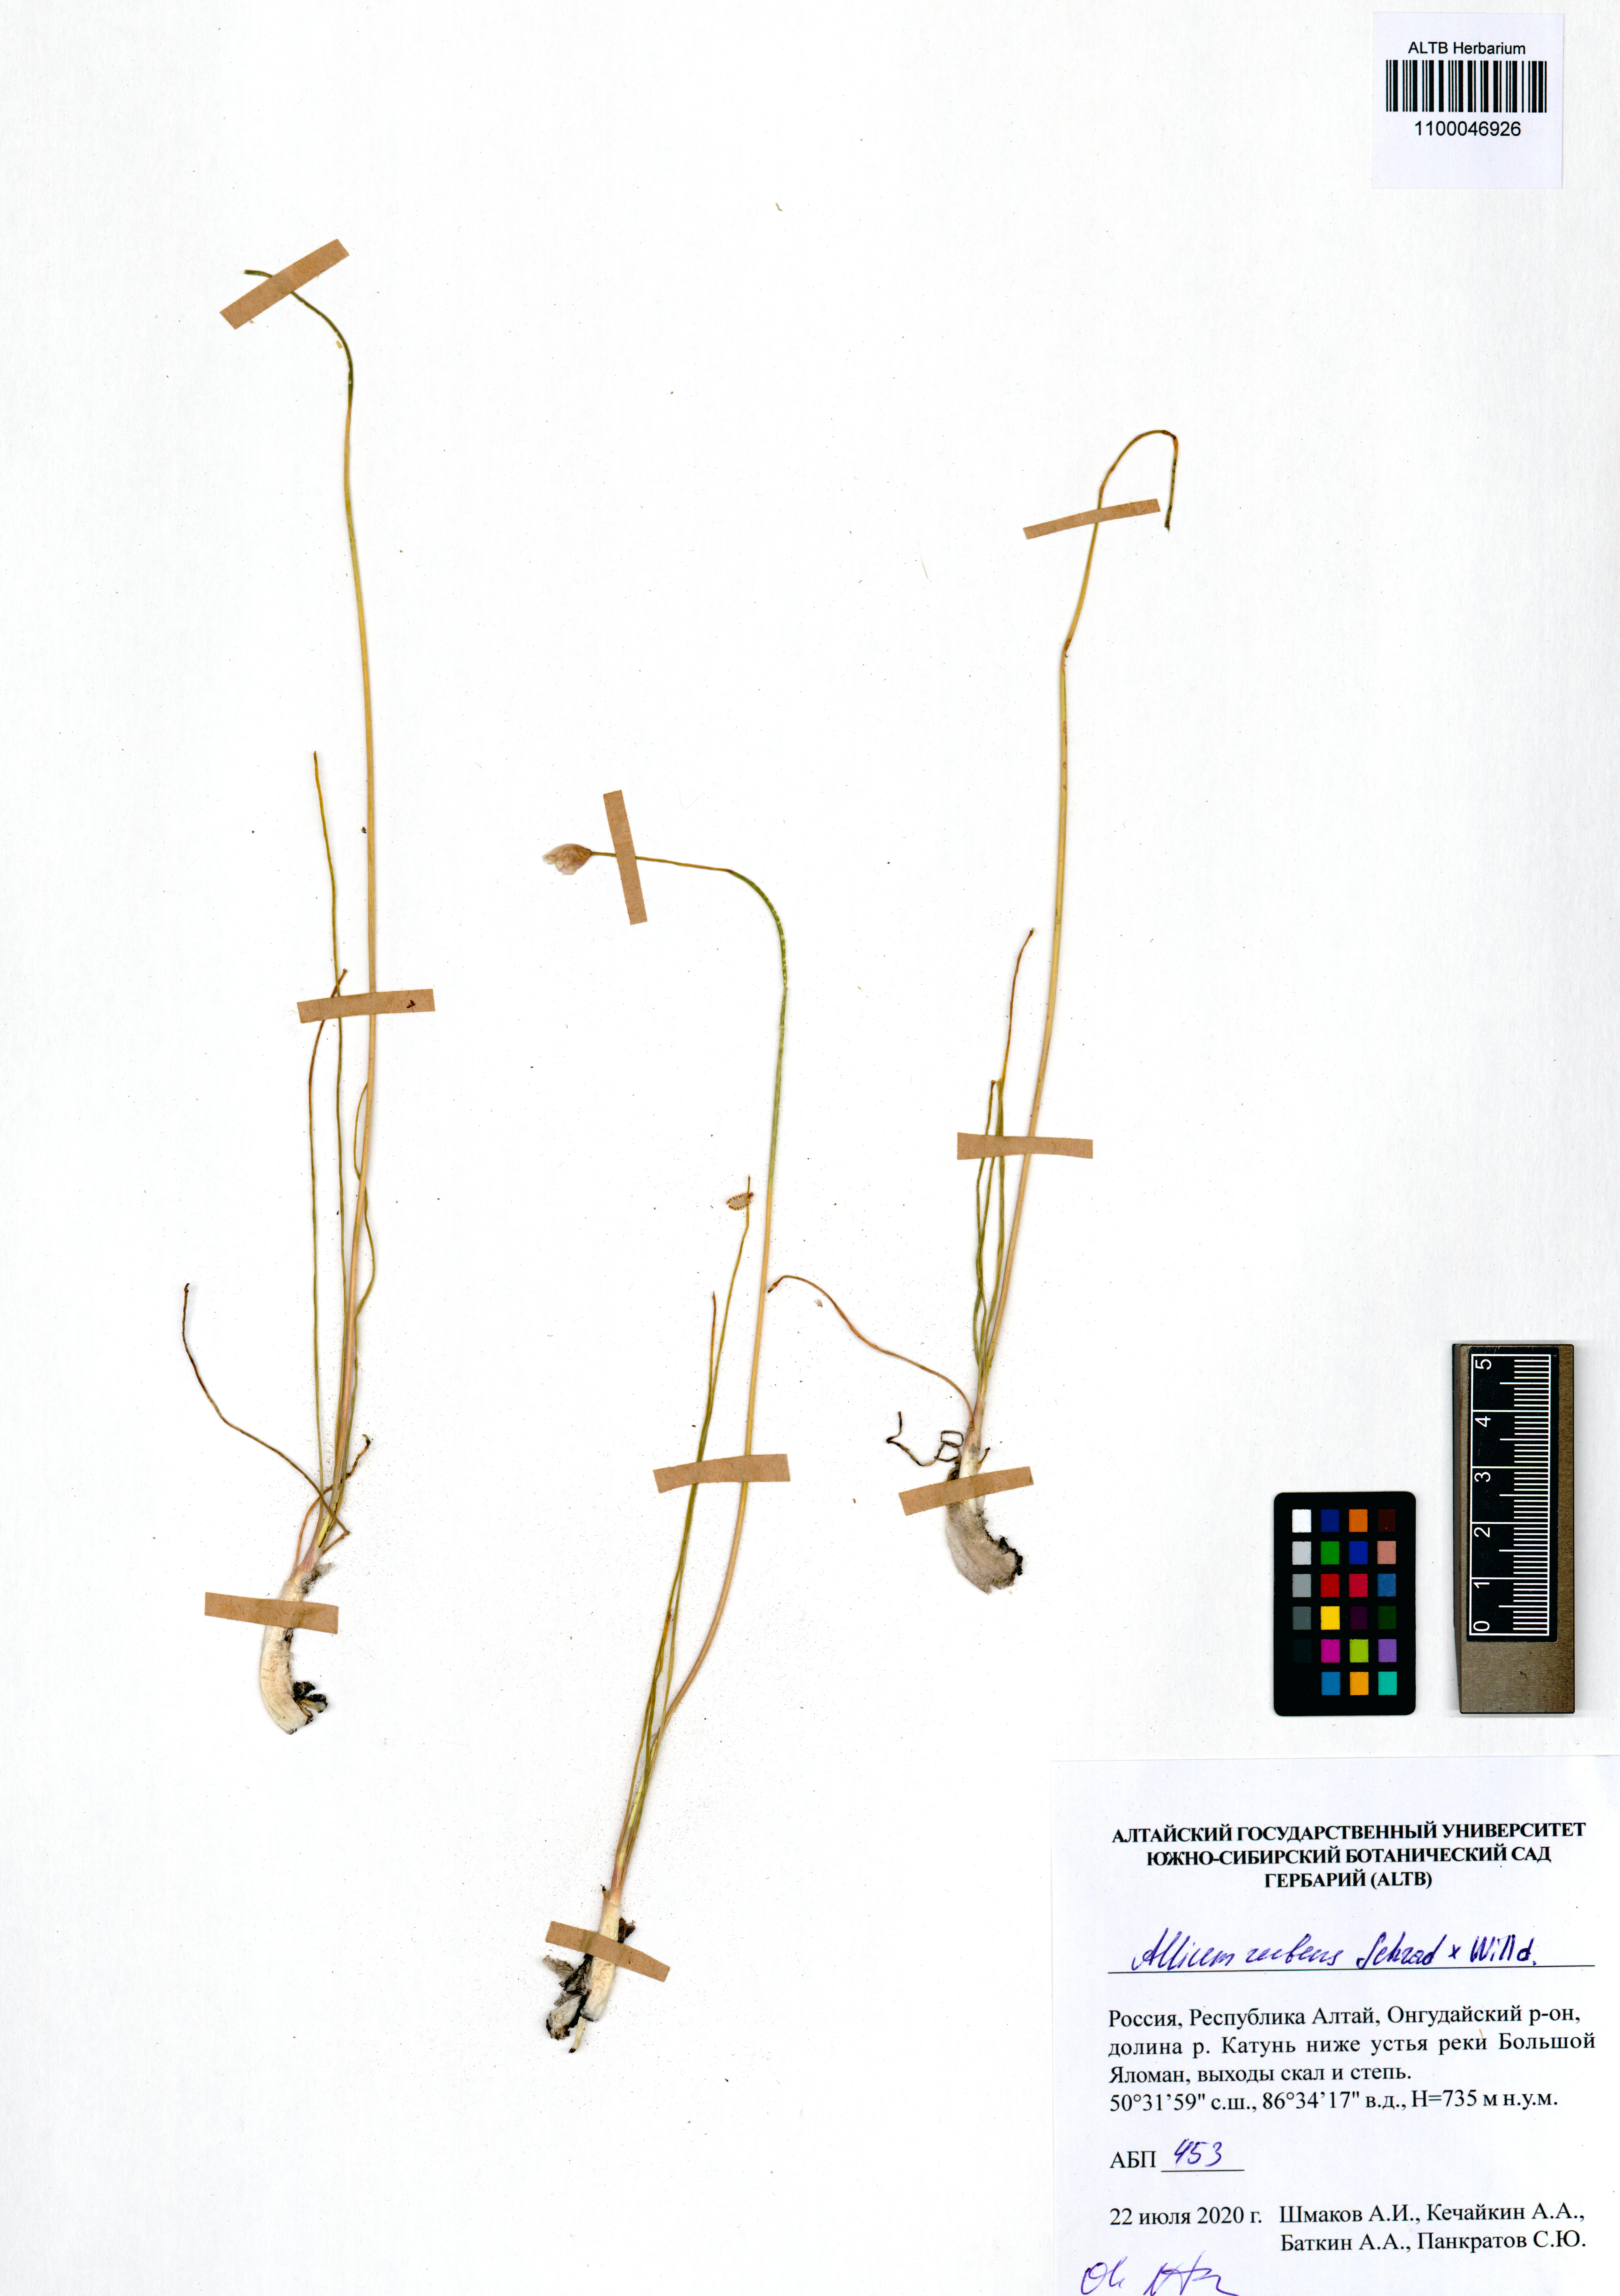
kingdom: Plantae
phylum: Tracheophyta
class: Liliopsida
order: Asparagales
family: Amaryllidaceae
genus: Allium
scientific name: Allium rubens
